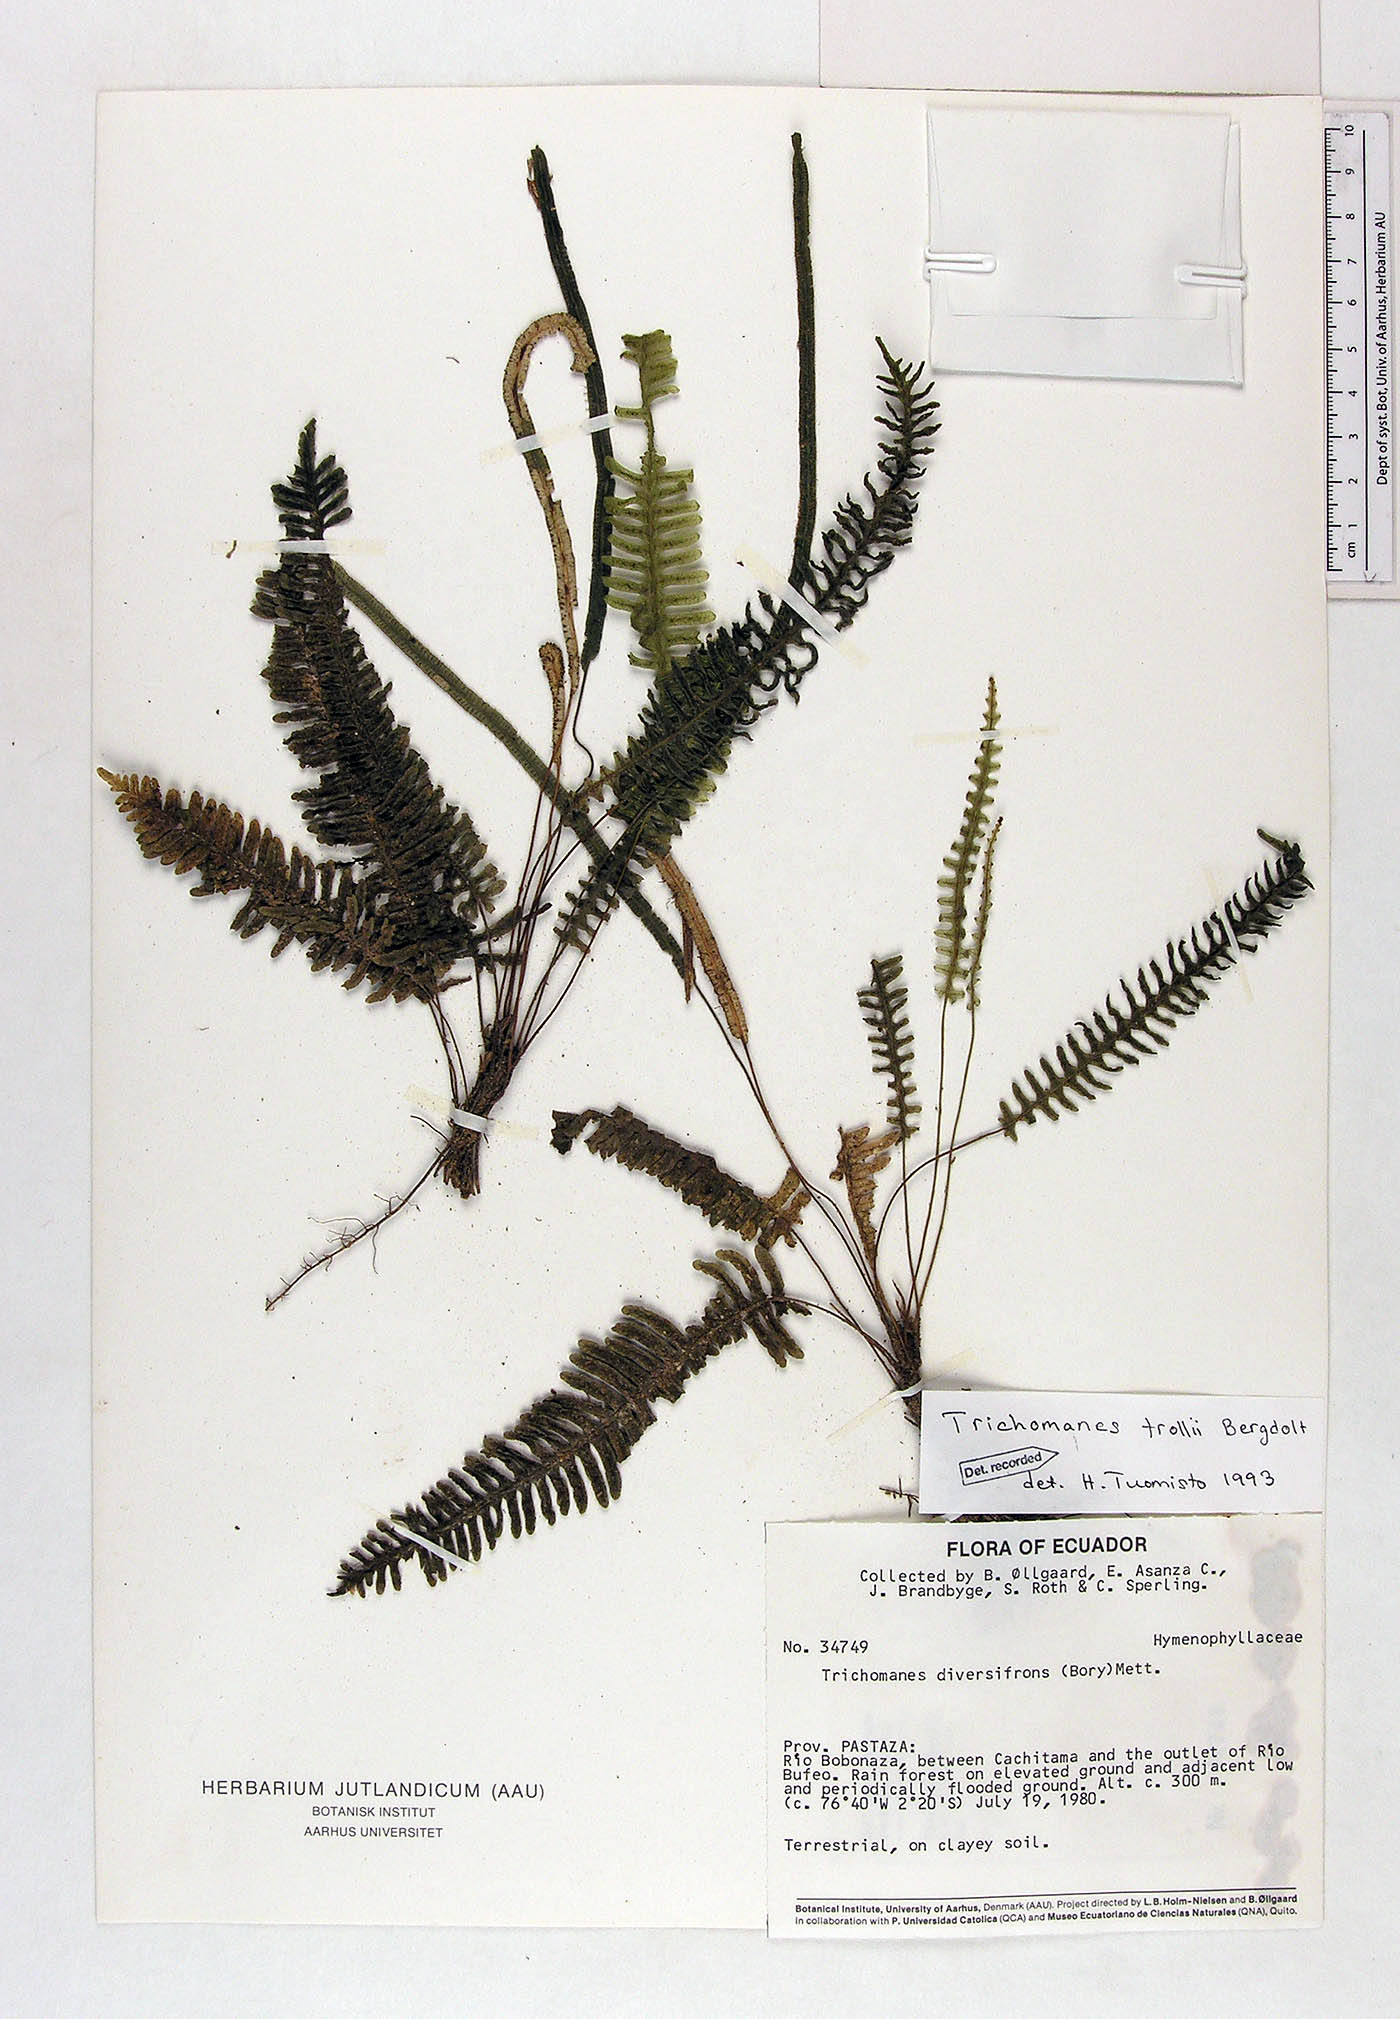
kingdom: Plantae
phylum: Tracheophyta
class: Polypodiopsida
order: Hymenophyllales
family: Hymenophyllaceae
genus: Trichomanes
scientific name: Trichomanes trollii
